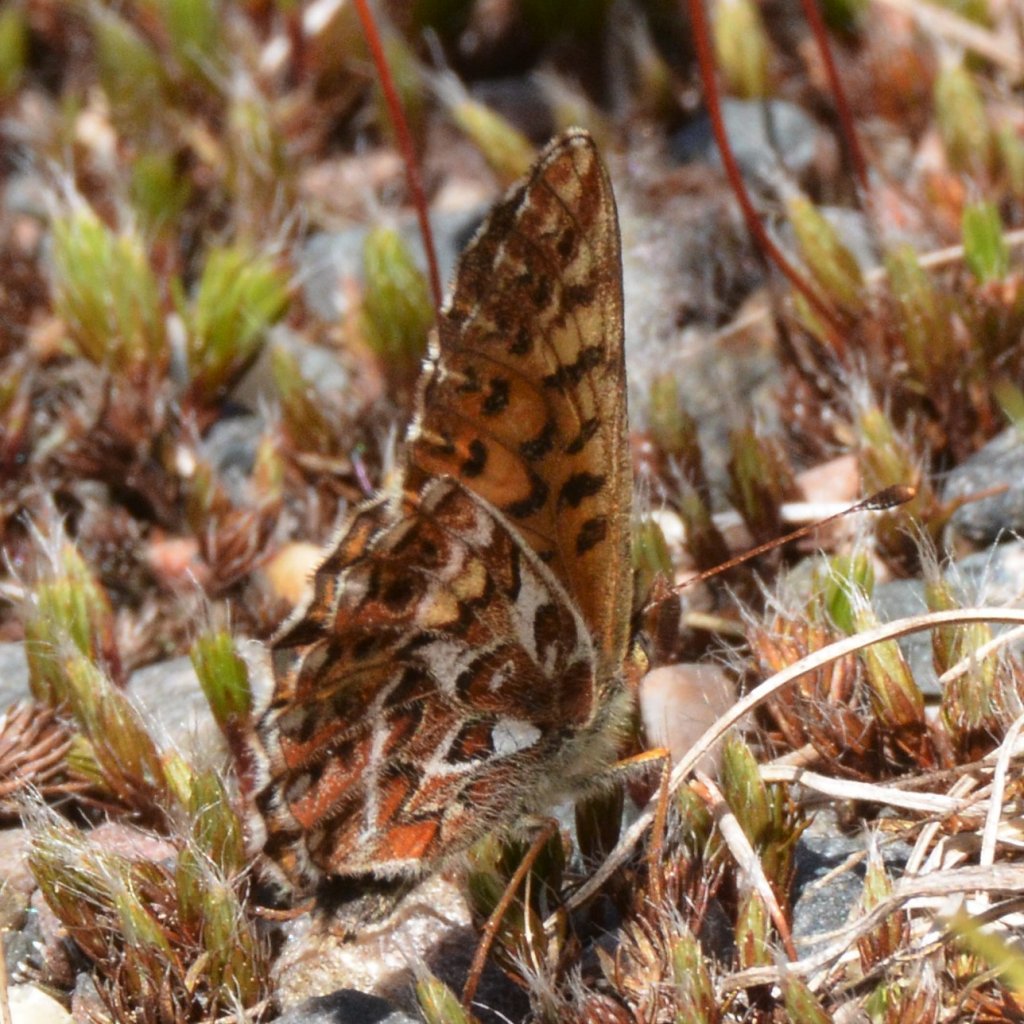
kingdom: Animalia
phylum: Arthropoda
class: Insecta
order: Lepidoptera
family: Nymphalidae
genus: Boloria
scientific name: Boloria freija
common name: Freija Fritillary
